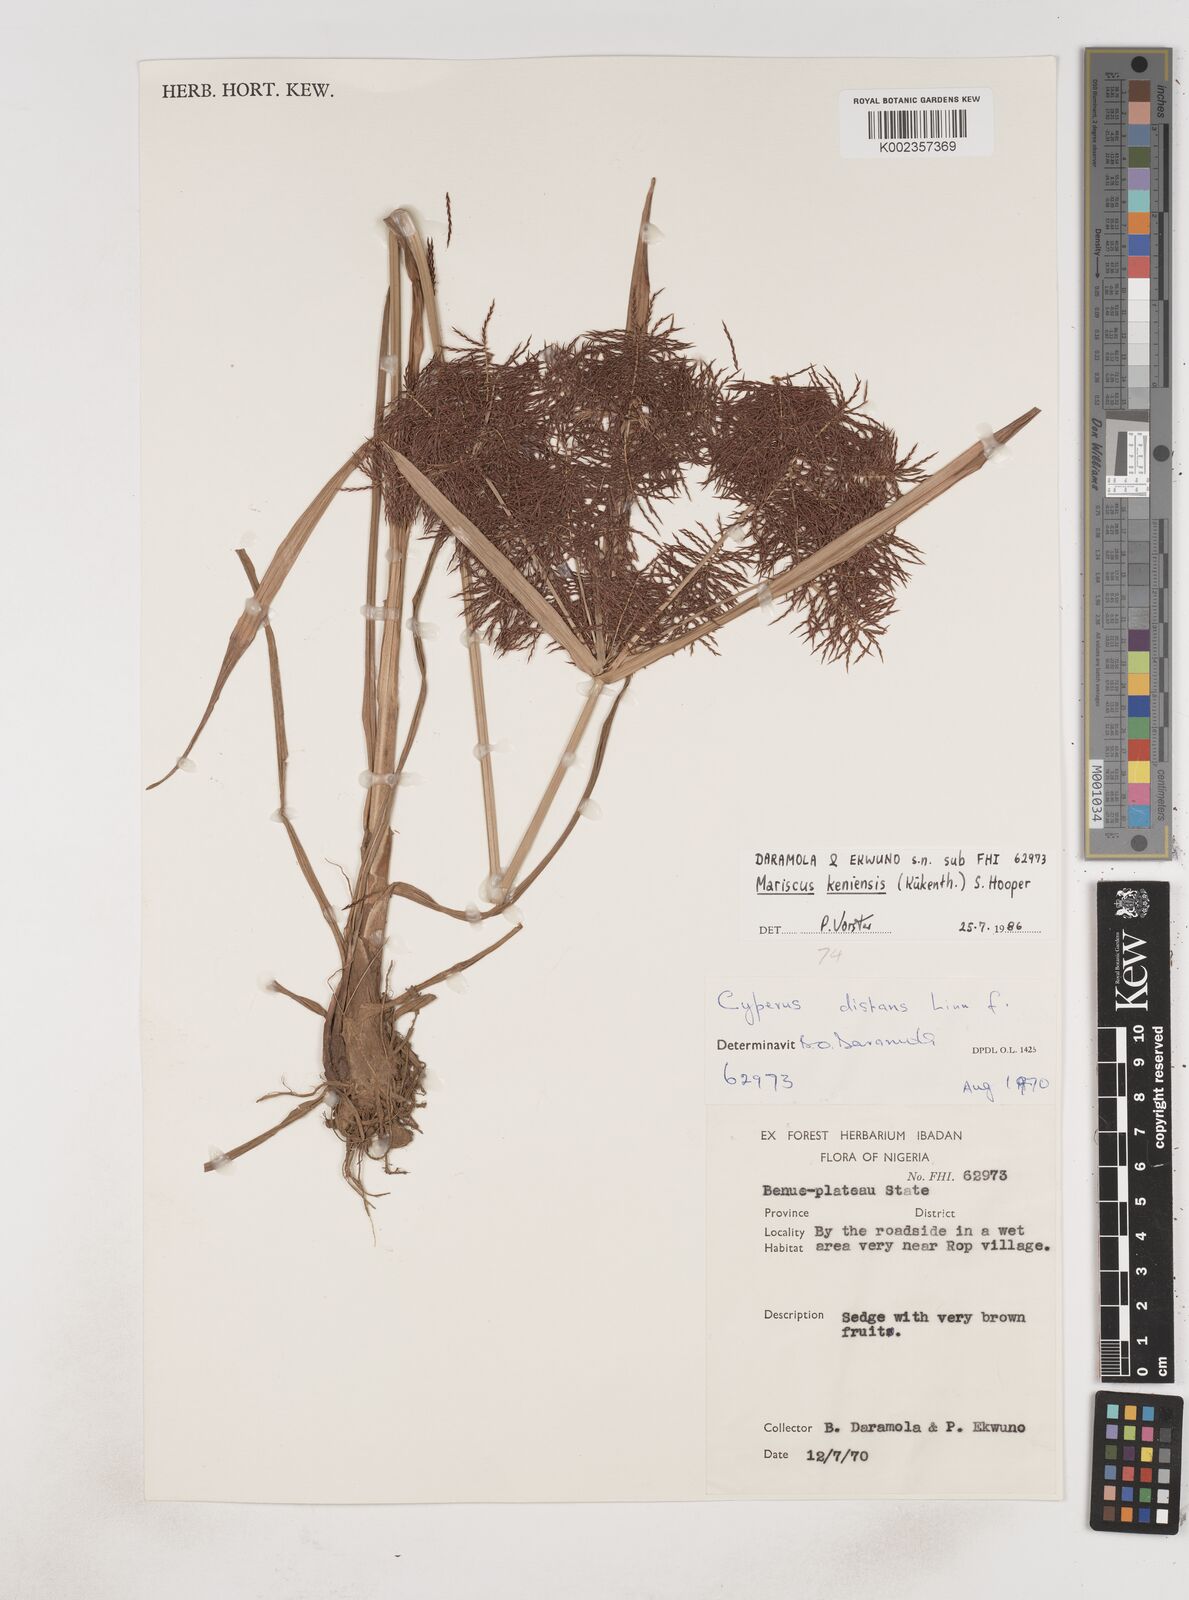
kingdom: Plantae
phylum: Tracheophyta
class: Liliopsida
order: Poales
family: Cyperaceae
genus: Cyperus
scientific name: Cyperus distans
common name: Slender cyperus
